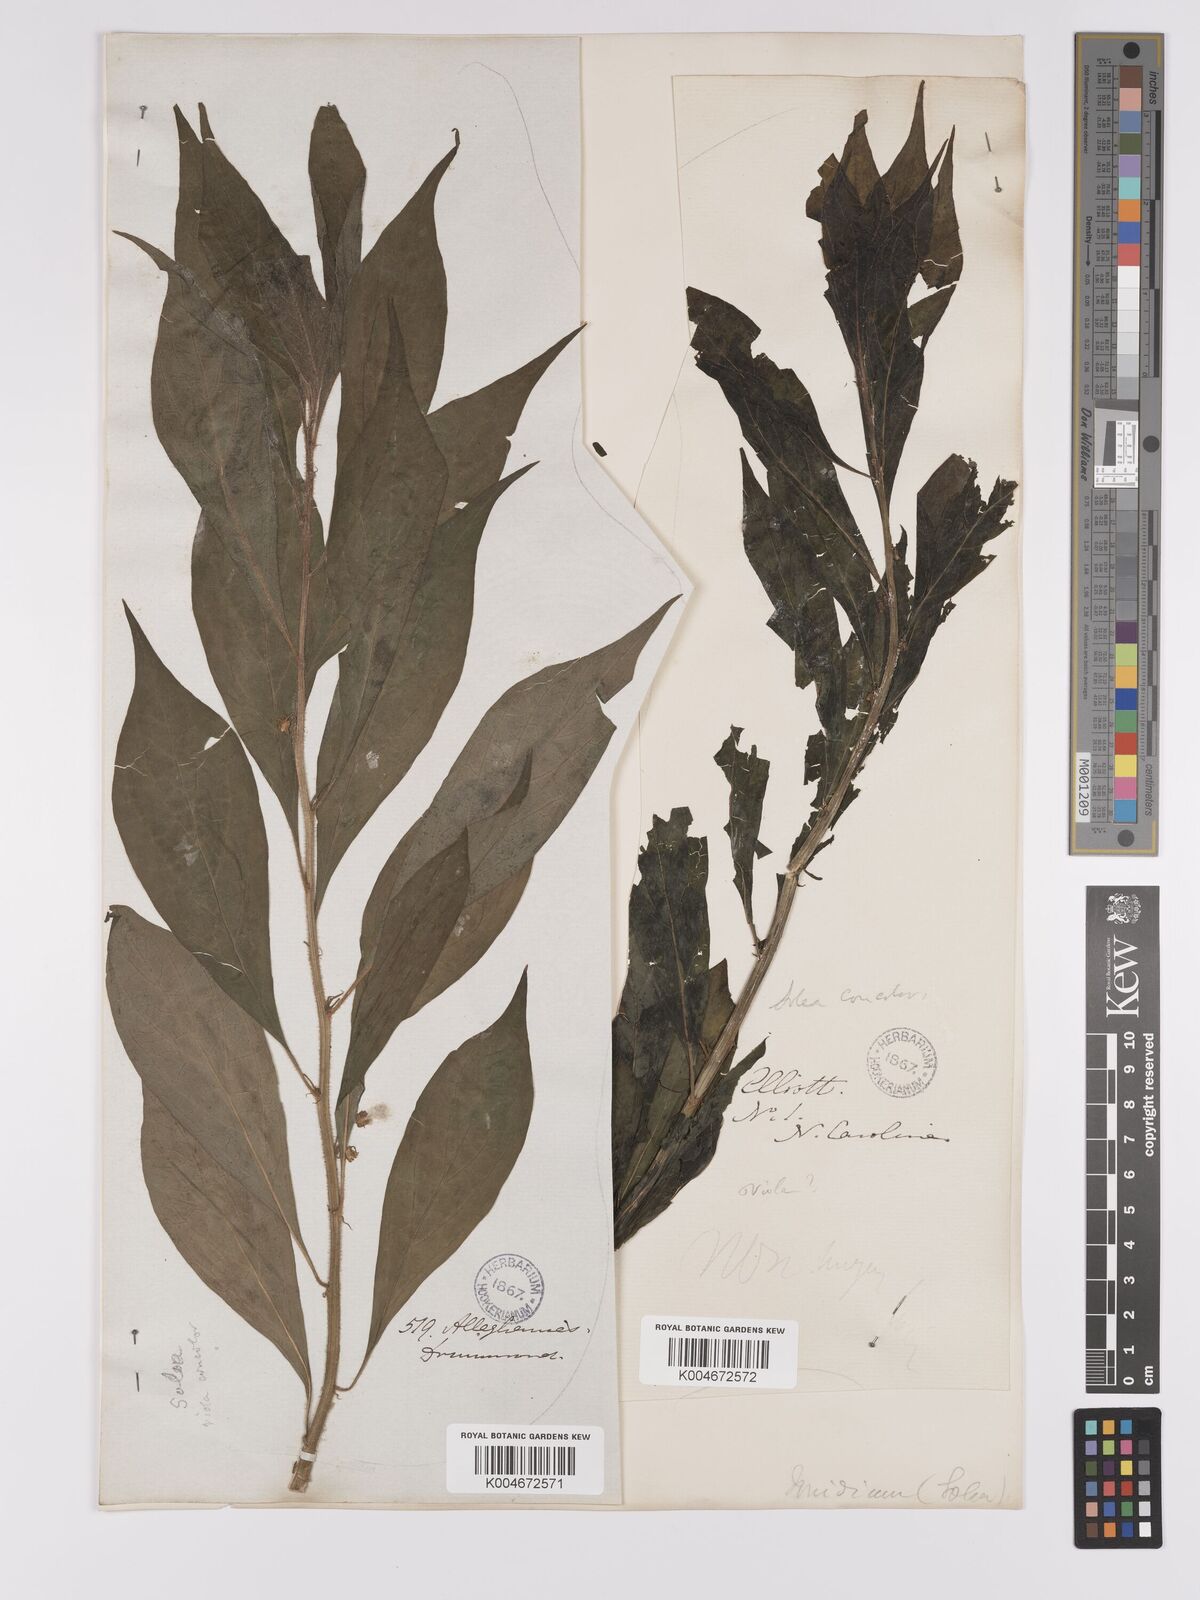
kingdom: Plantae
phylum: Tracheophyta
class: Magnoliopsida
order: Malpighiales
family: Violaceae
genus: Cubelium
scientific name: Cubelium concolor
